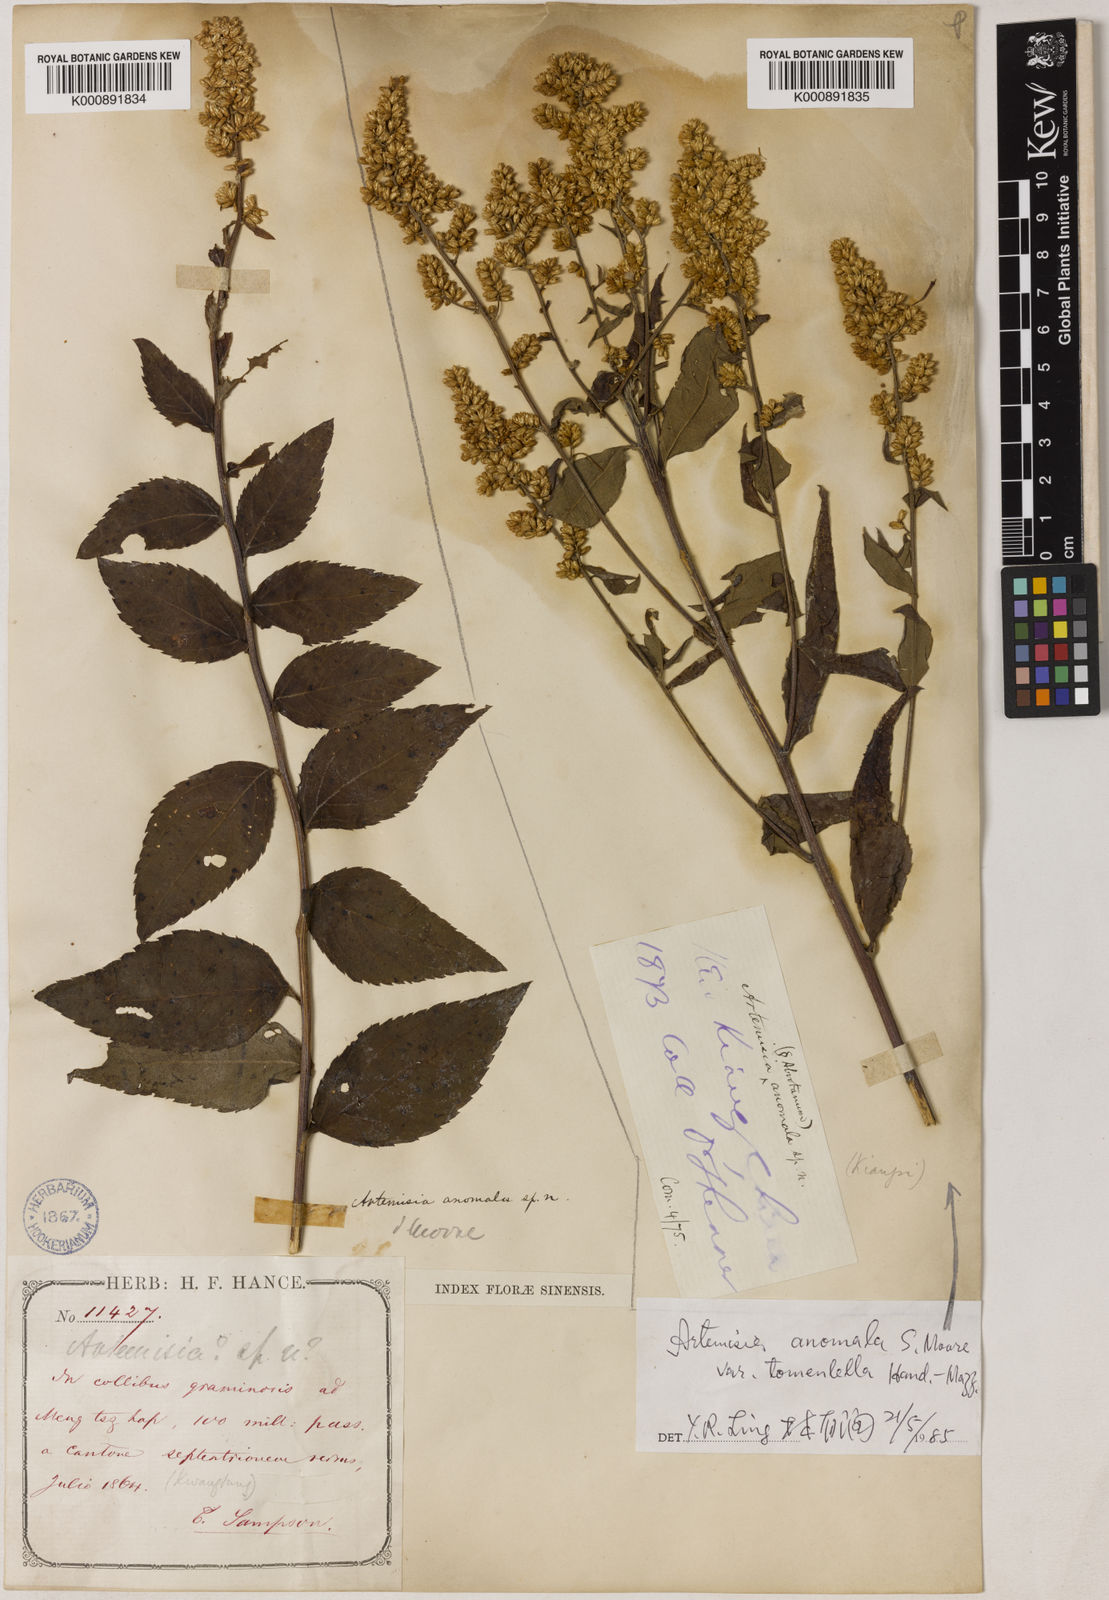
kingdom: Plantae
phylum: Tracheophyta
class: Magnoliopsida
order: Asterales
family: Asteraceae
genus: Artemisia
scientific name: Artemisia anomala
